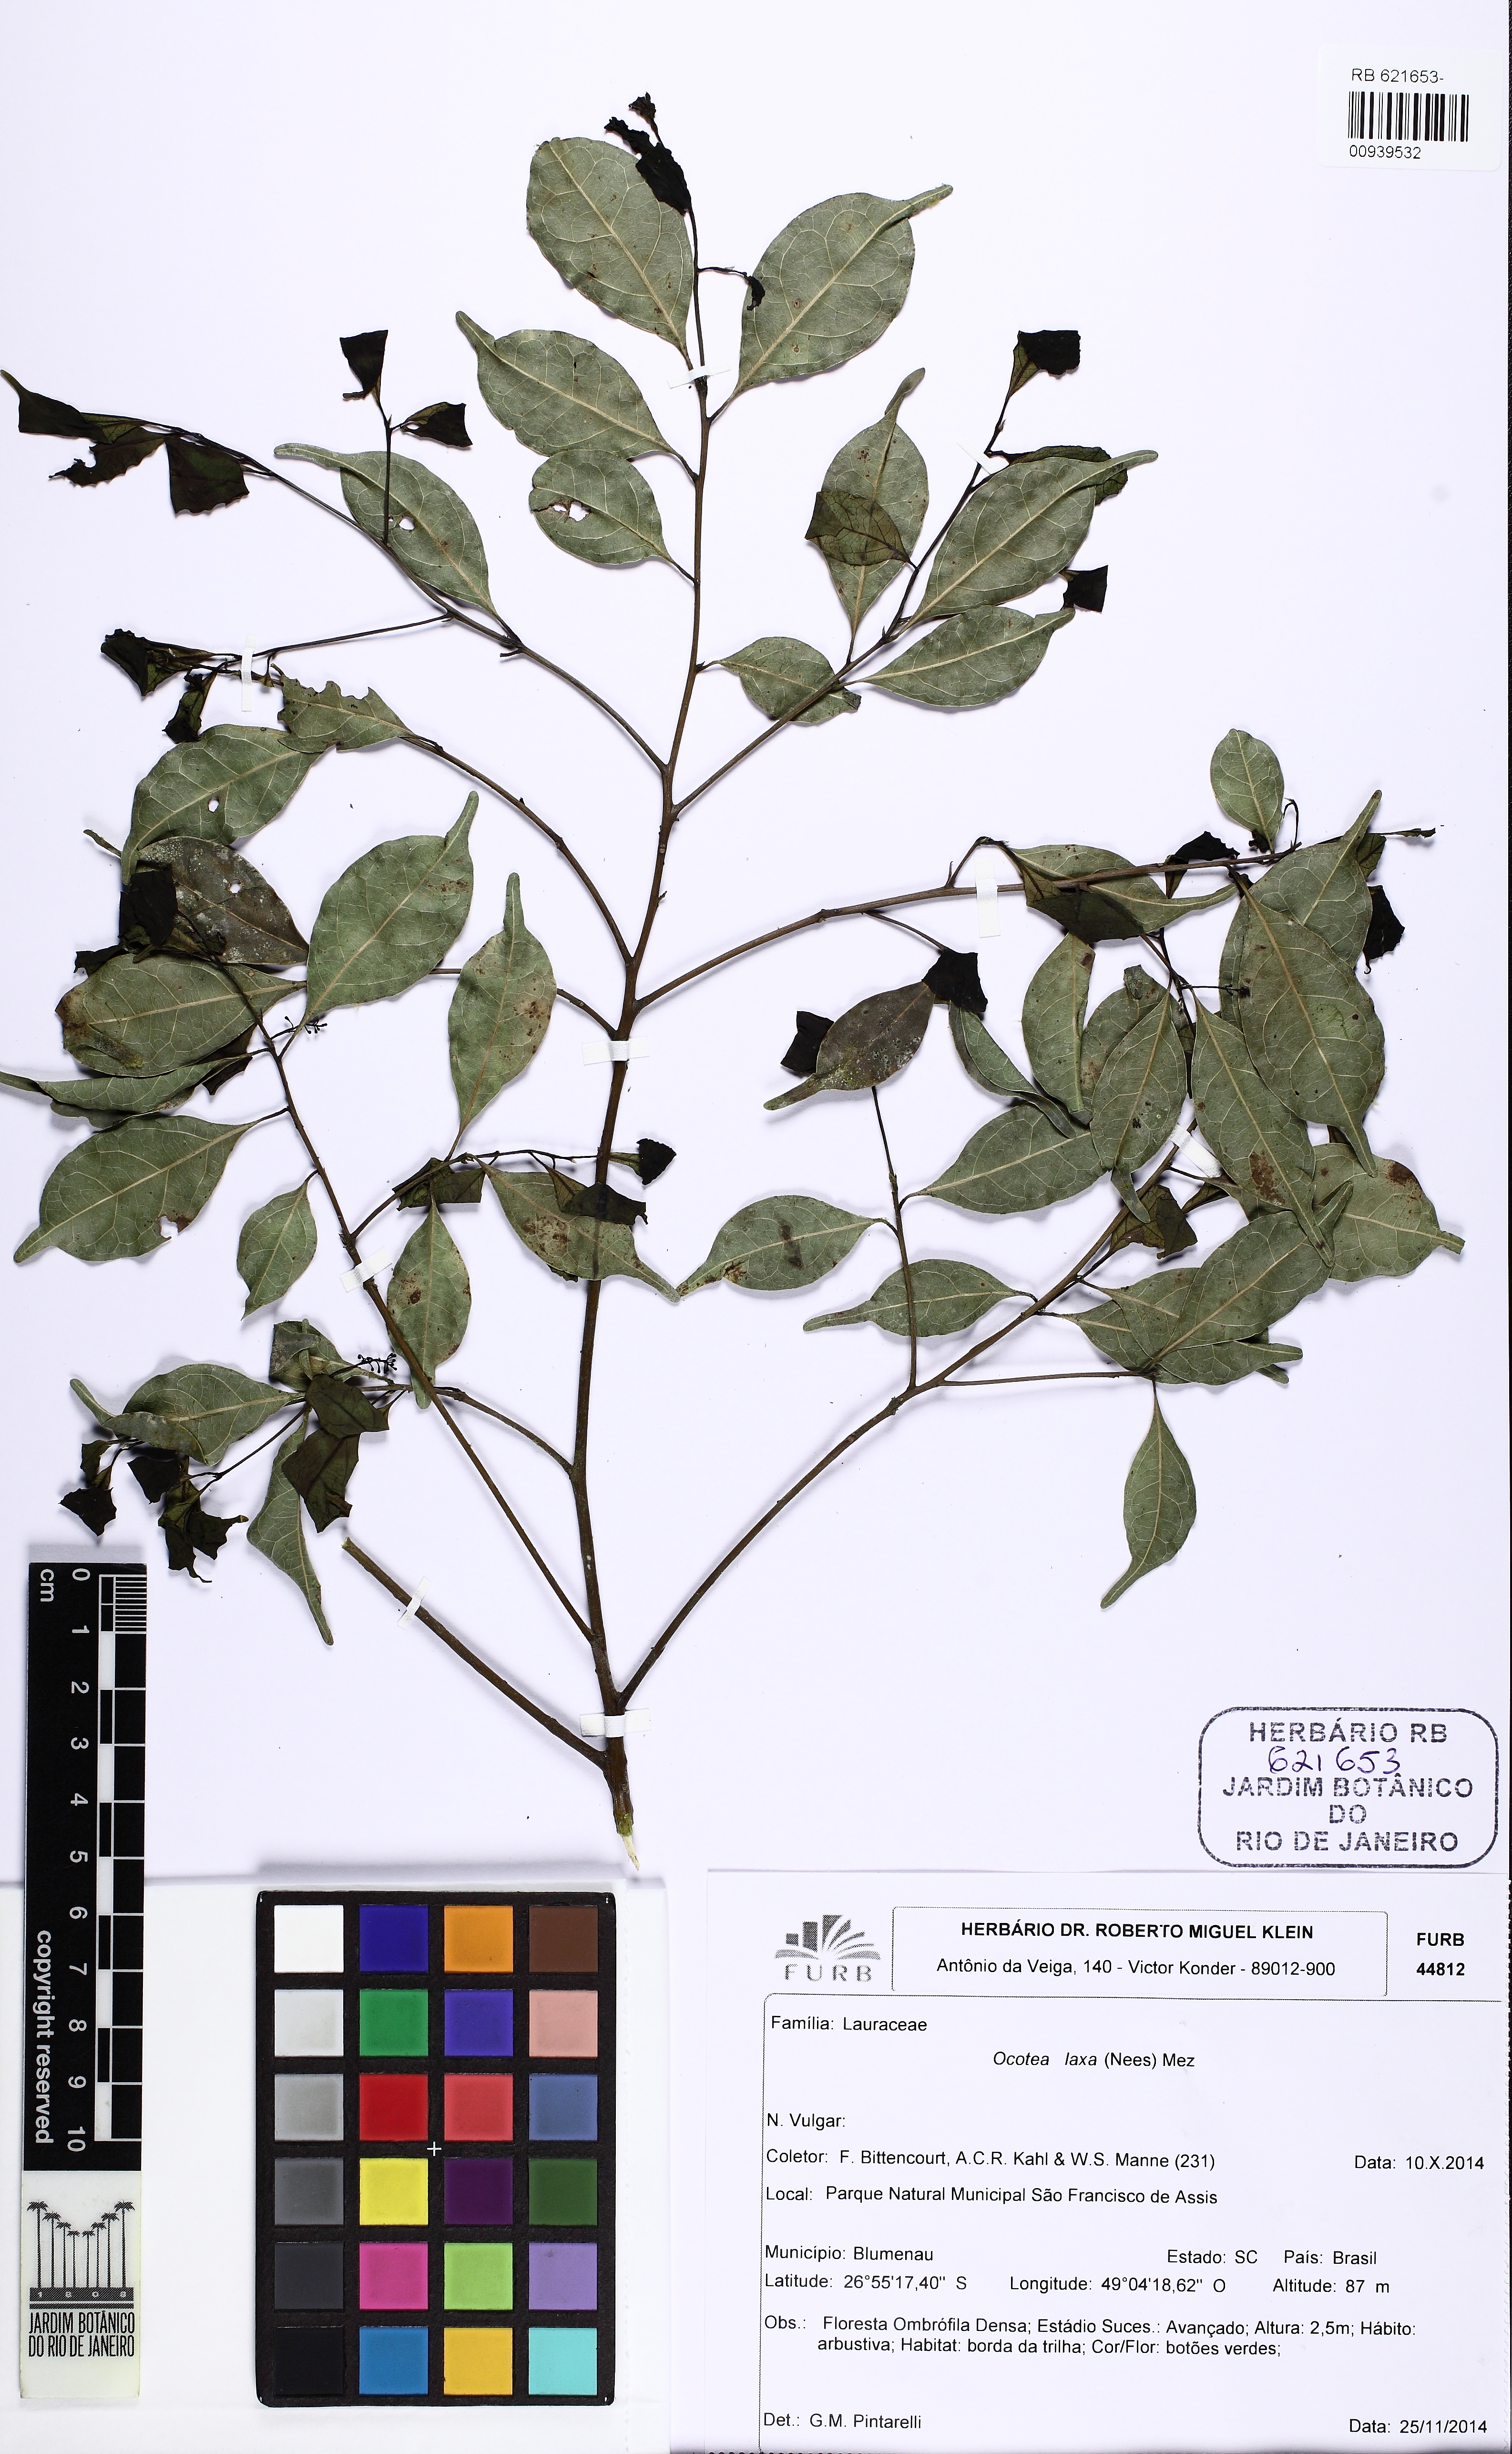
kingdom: Plantae
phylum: Tracheophyta
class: Magnoliopsida
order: Laurales
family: Lauraceae
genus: Ocotea
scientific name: Ocotea laxa
